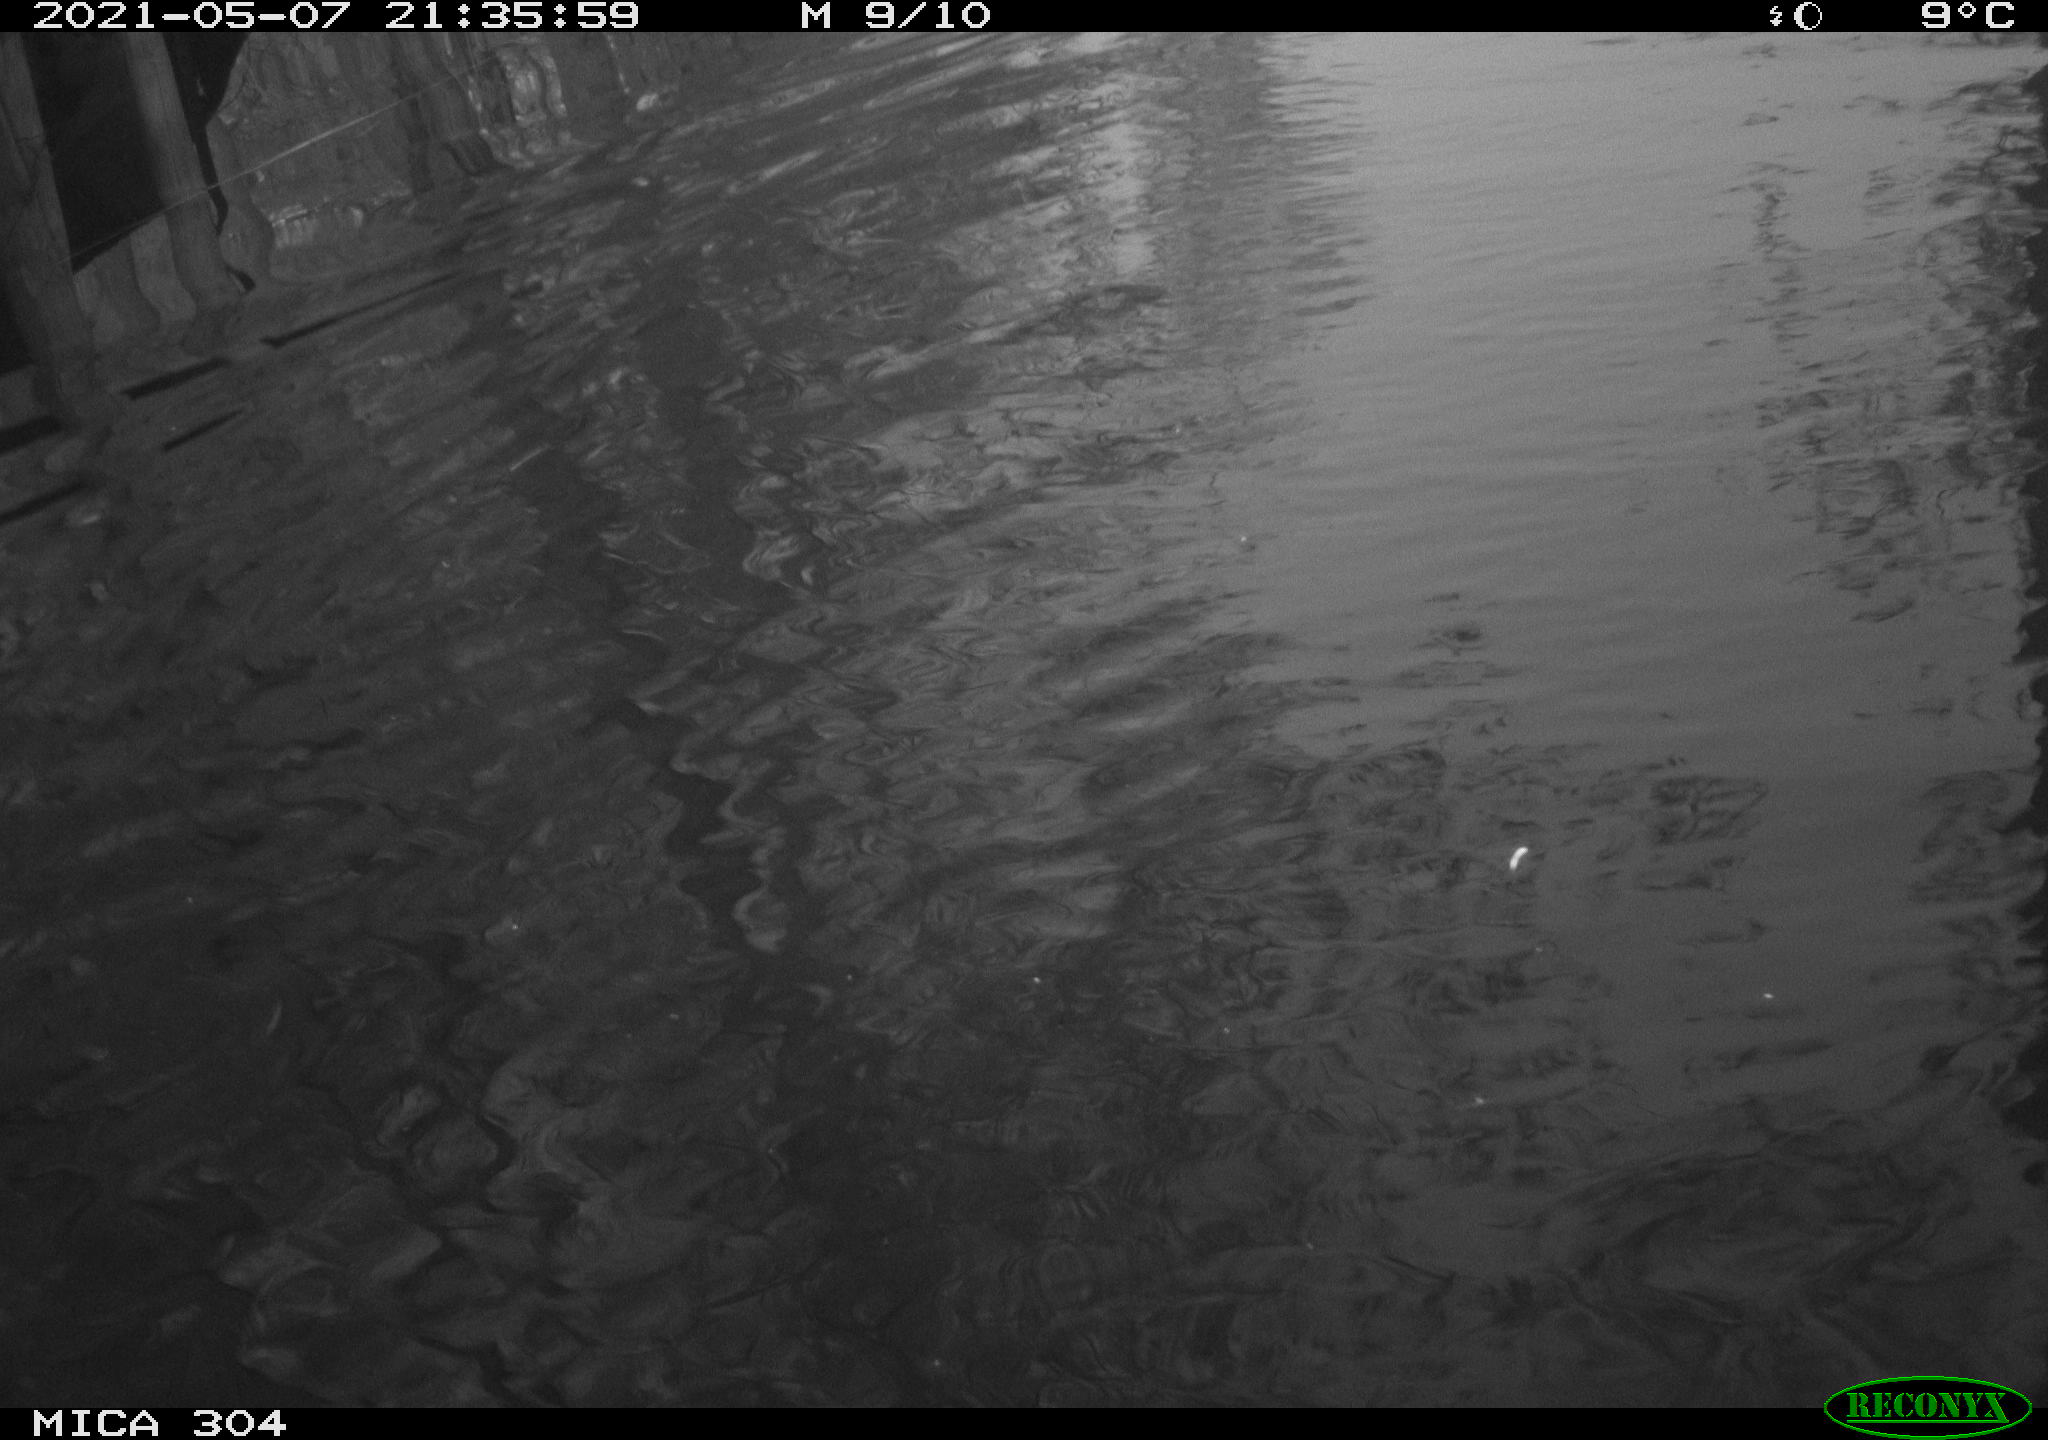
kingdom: Animalia
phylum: Chordata
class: Aves
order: Anseriformes
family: Anatidae
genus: Anas
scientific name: Anas platyrhynchos
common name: Mallard
